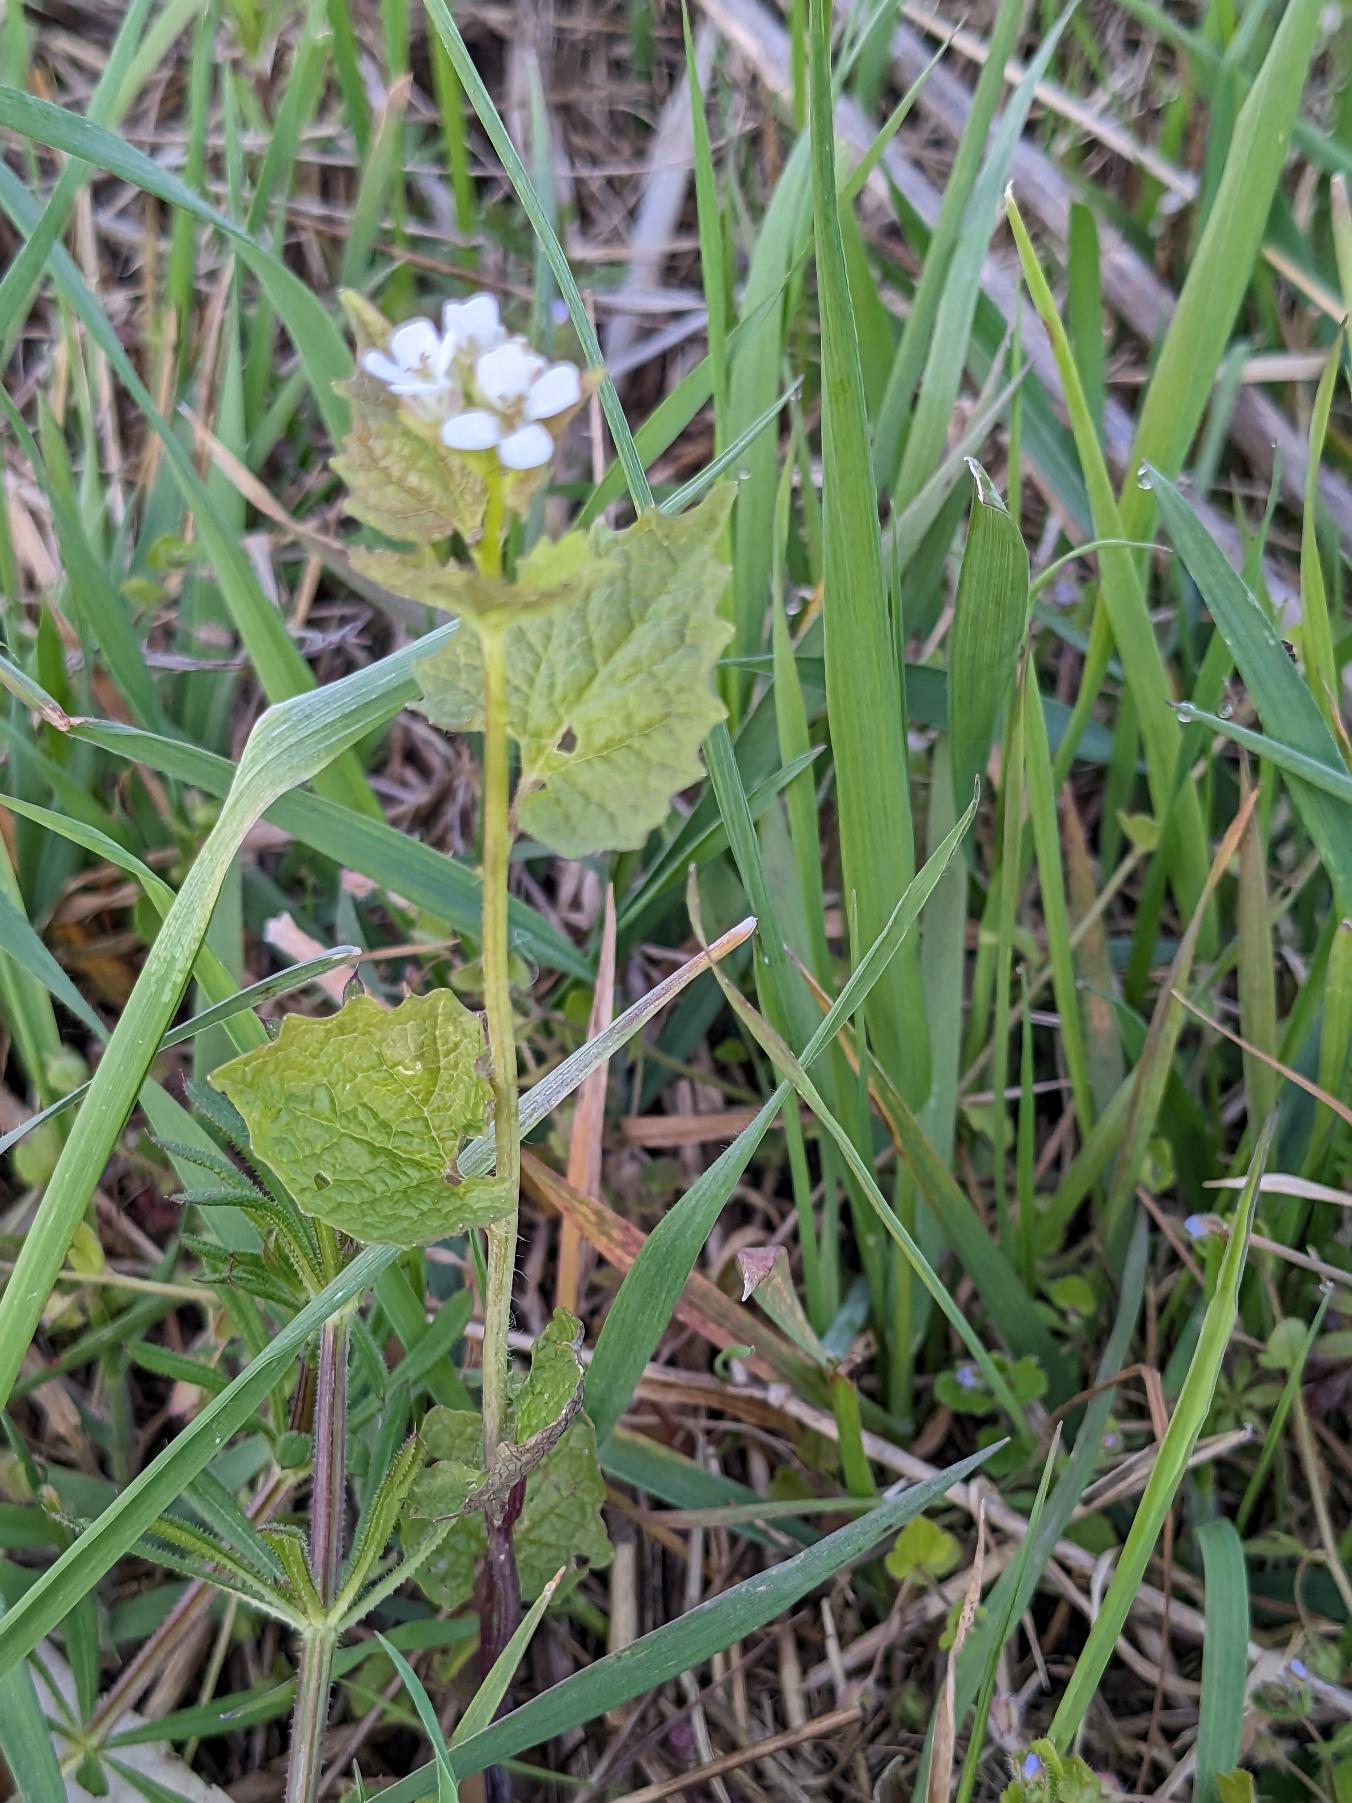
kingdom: Plantae
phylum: Tracheophyta
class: Magnoliopsida
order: Brassicales
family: Brassicaceae
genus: Alliaria
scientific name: Alliaria petiolata
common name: Løgkarse
